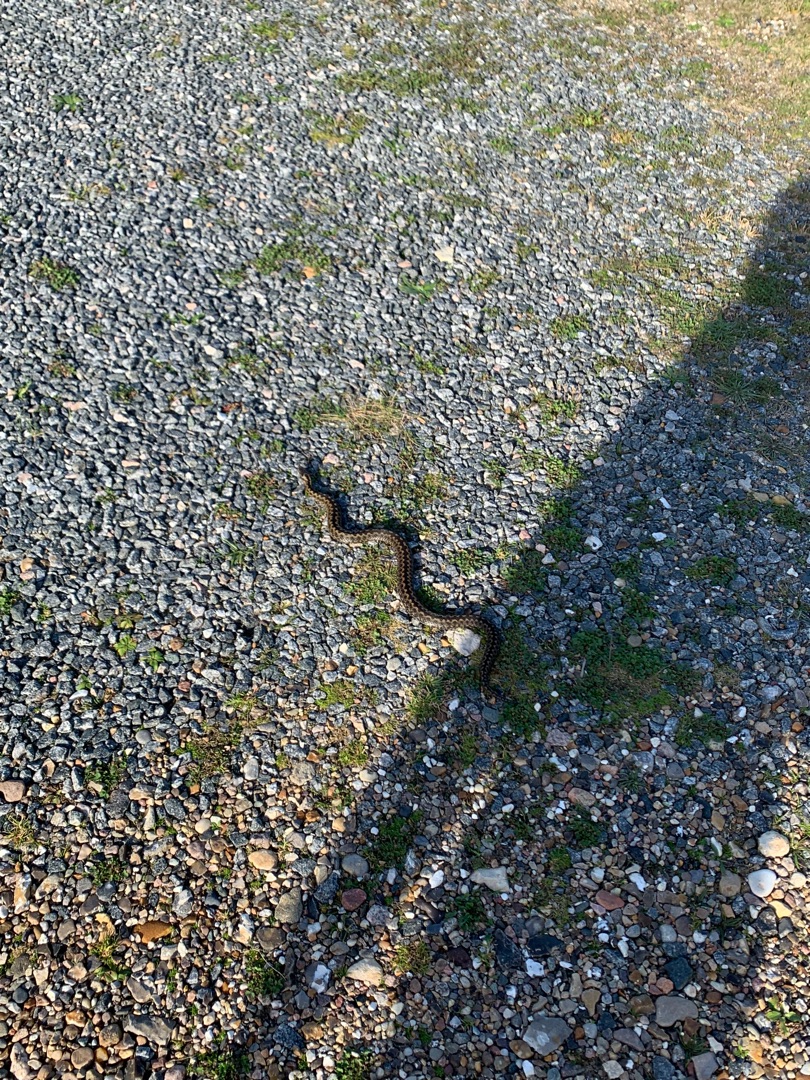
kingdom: Animalia
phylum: Chordata
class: Squamata
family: Viperidae
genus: Vipera
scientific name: Vipera berus
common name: Hugorm
